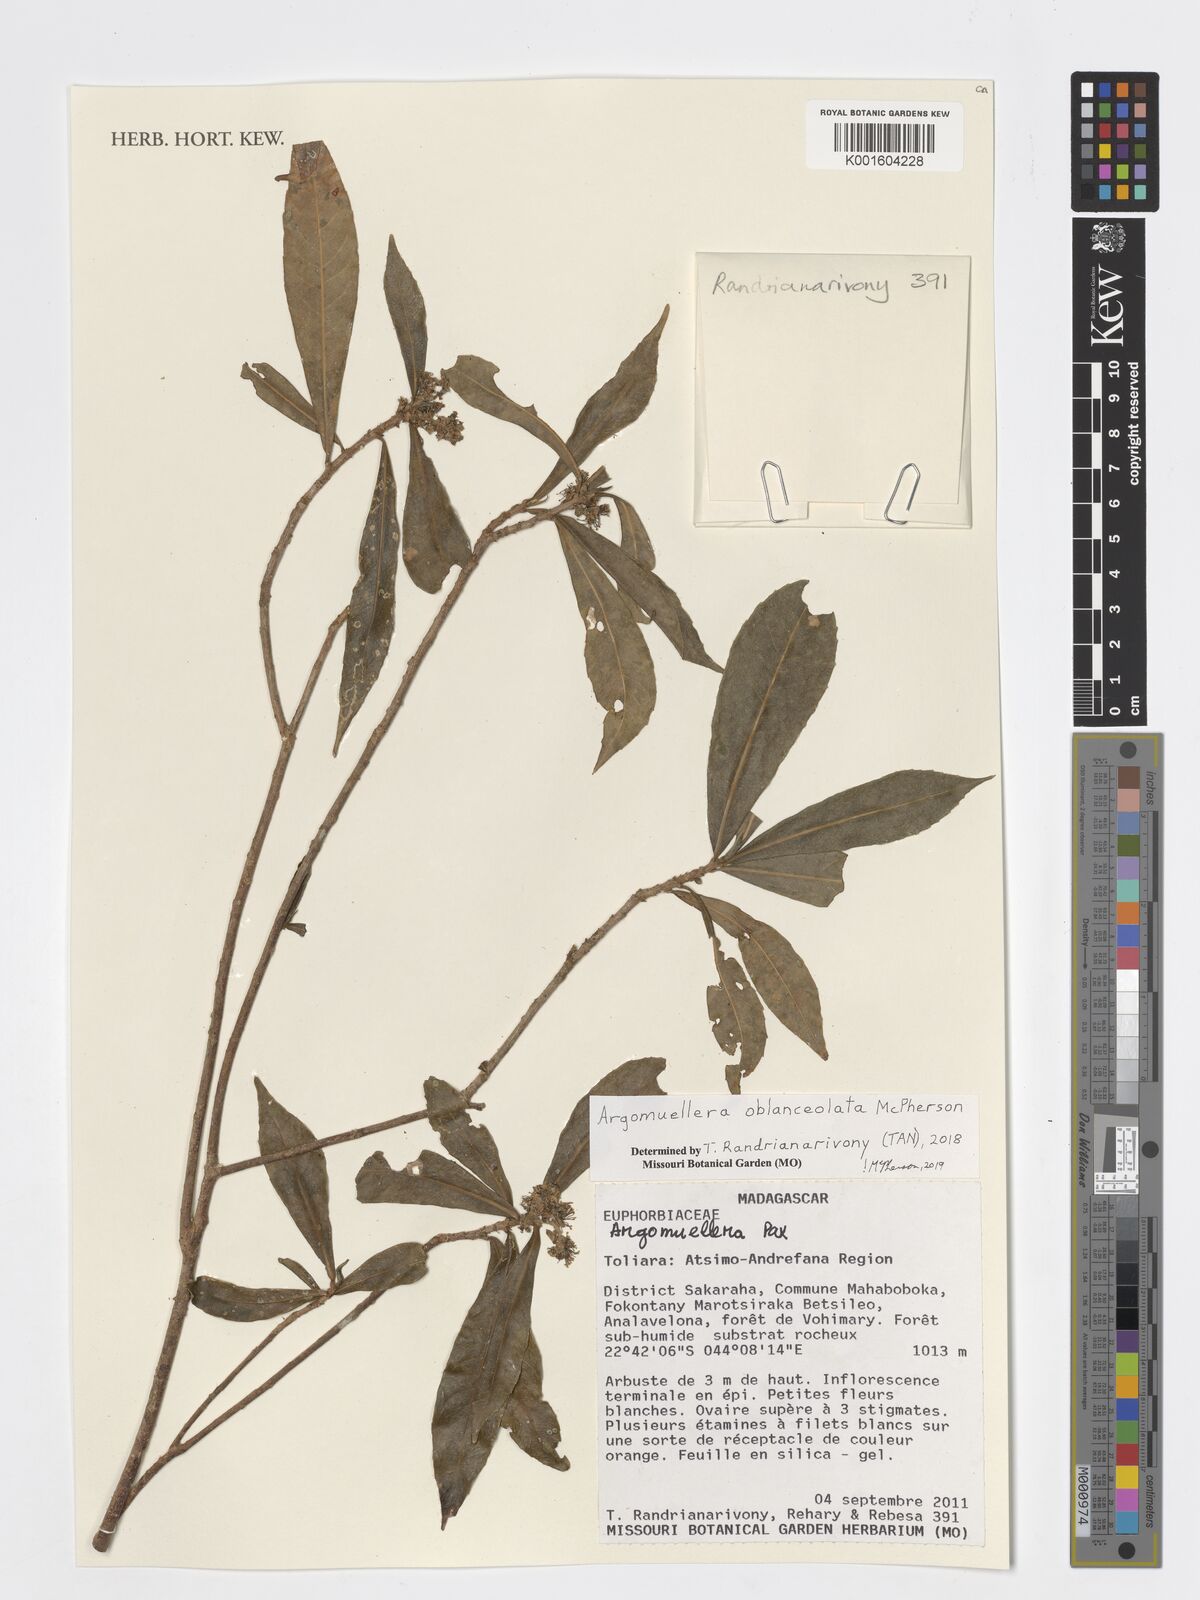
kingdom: Plantae
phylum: Tracheophyta
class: Magnoliopsida
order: Malpighiales
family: Euphorbiaceae
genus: Argomuellera
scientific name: Argomuellera oblanceolata
